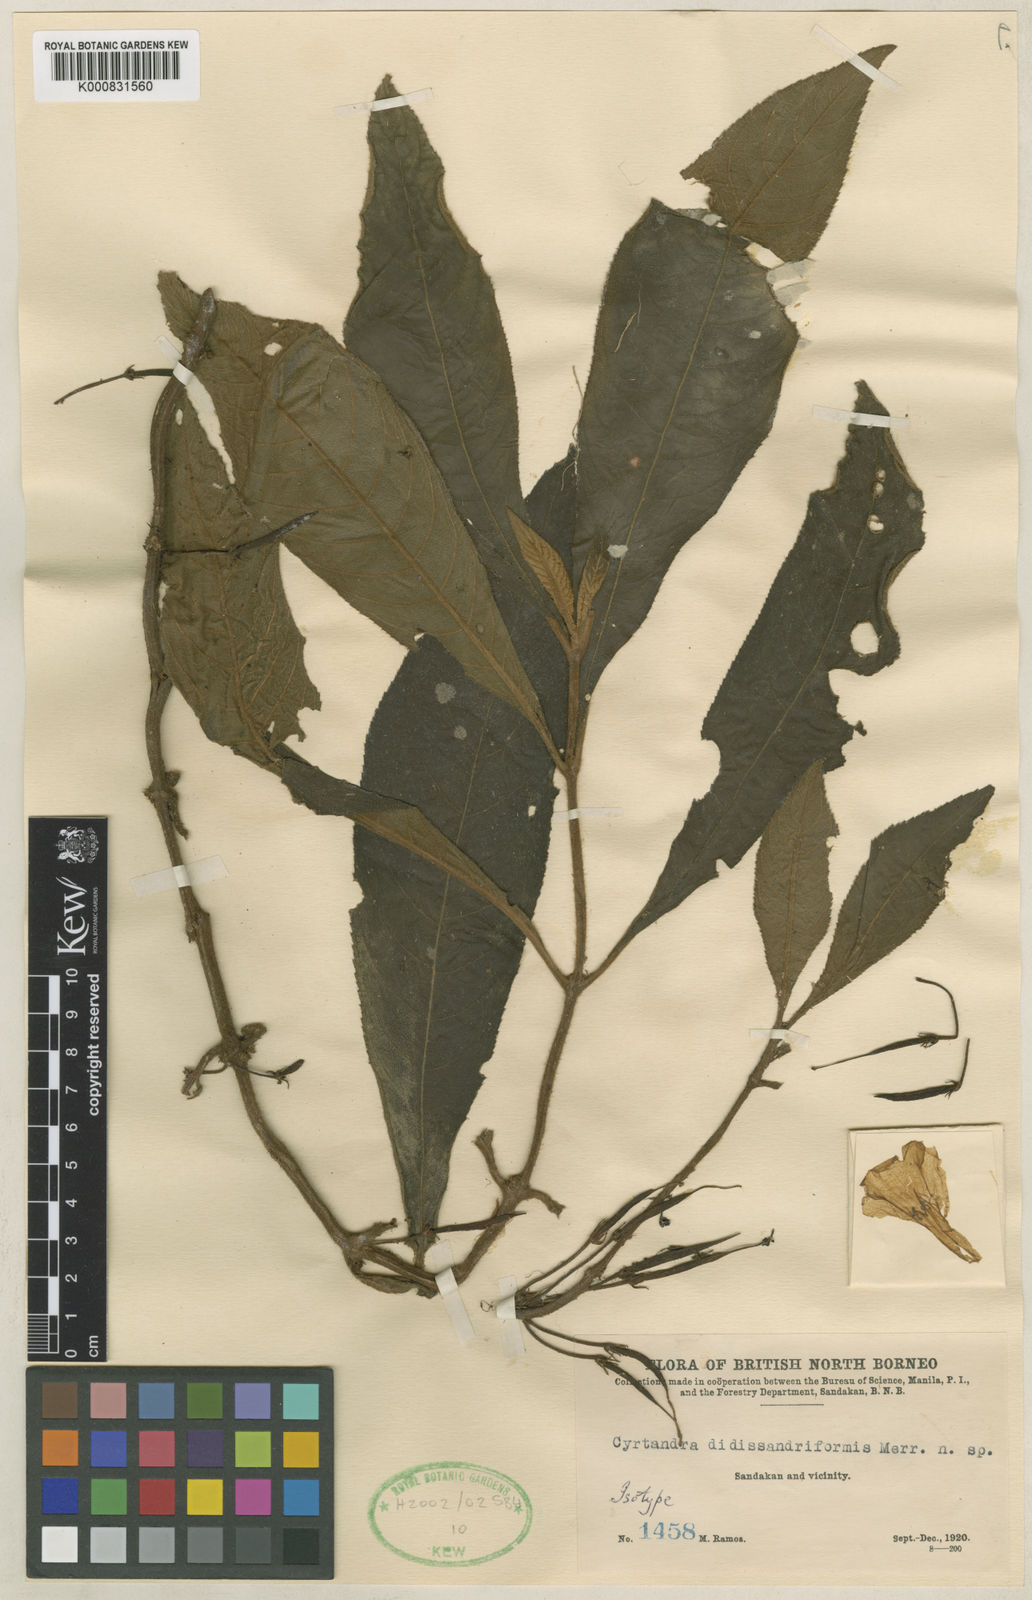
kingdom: Plantae
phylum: Tracheophyta
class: Magnoliopsida
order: Lamiales
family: Gesneriaceae
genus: Cyrtandra
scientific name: Cyrtandra areolata
